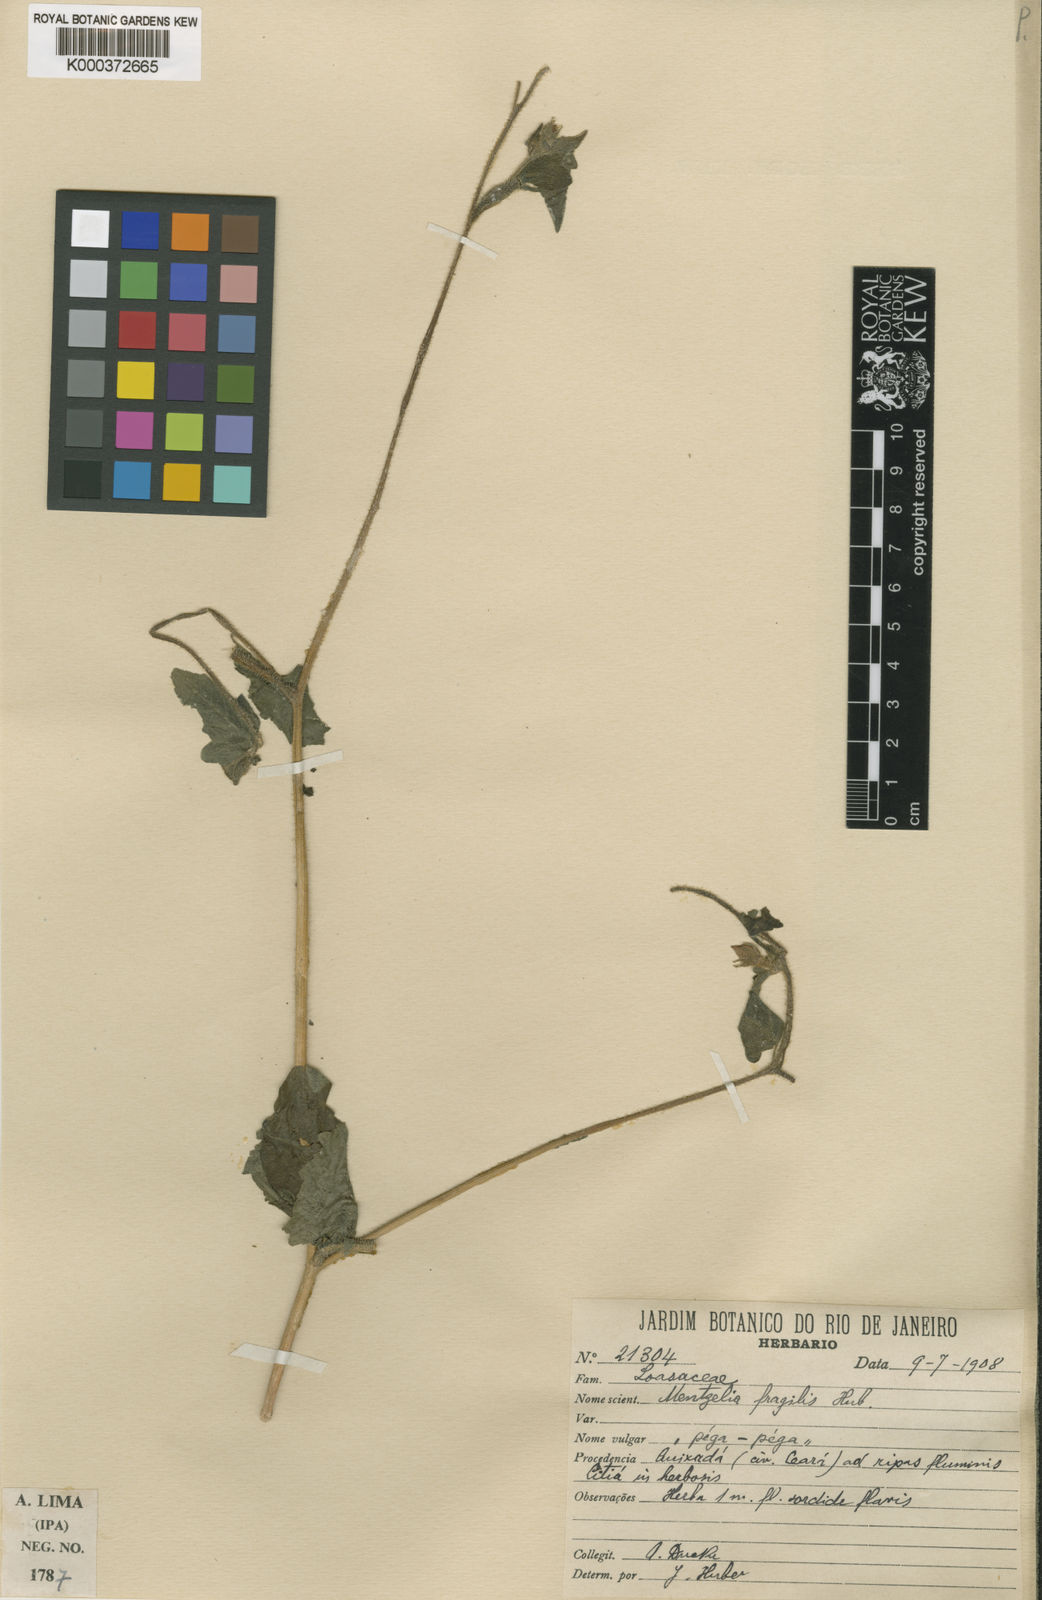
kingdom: Plantae
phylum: Tracheophyta
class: Magnoliopsida
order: Cornales
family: Loasaceae
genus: Mentzelia
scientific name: Mentzelia aspera
